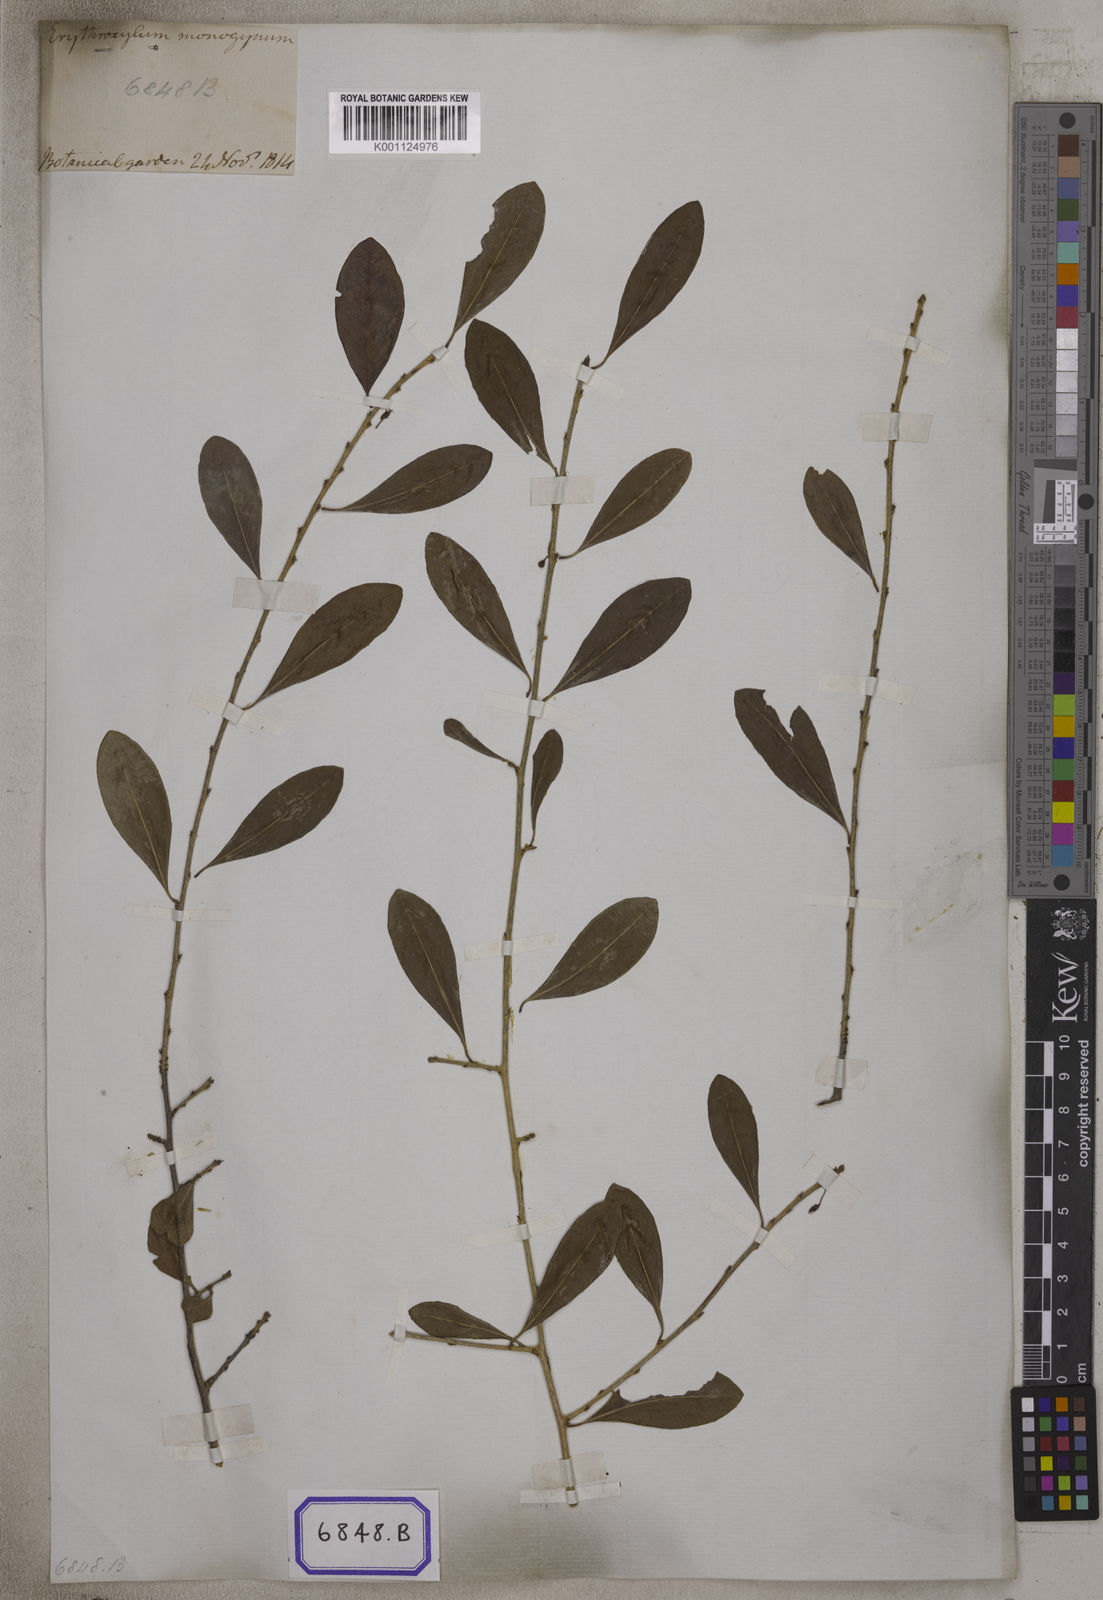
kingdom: Plantae
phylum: Tracheophyta
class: Magnoliopsida
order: Malpighiales
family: Erythroxylaceae
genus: Erythroxylum
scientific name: Erythroxylum monogynum
